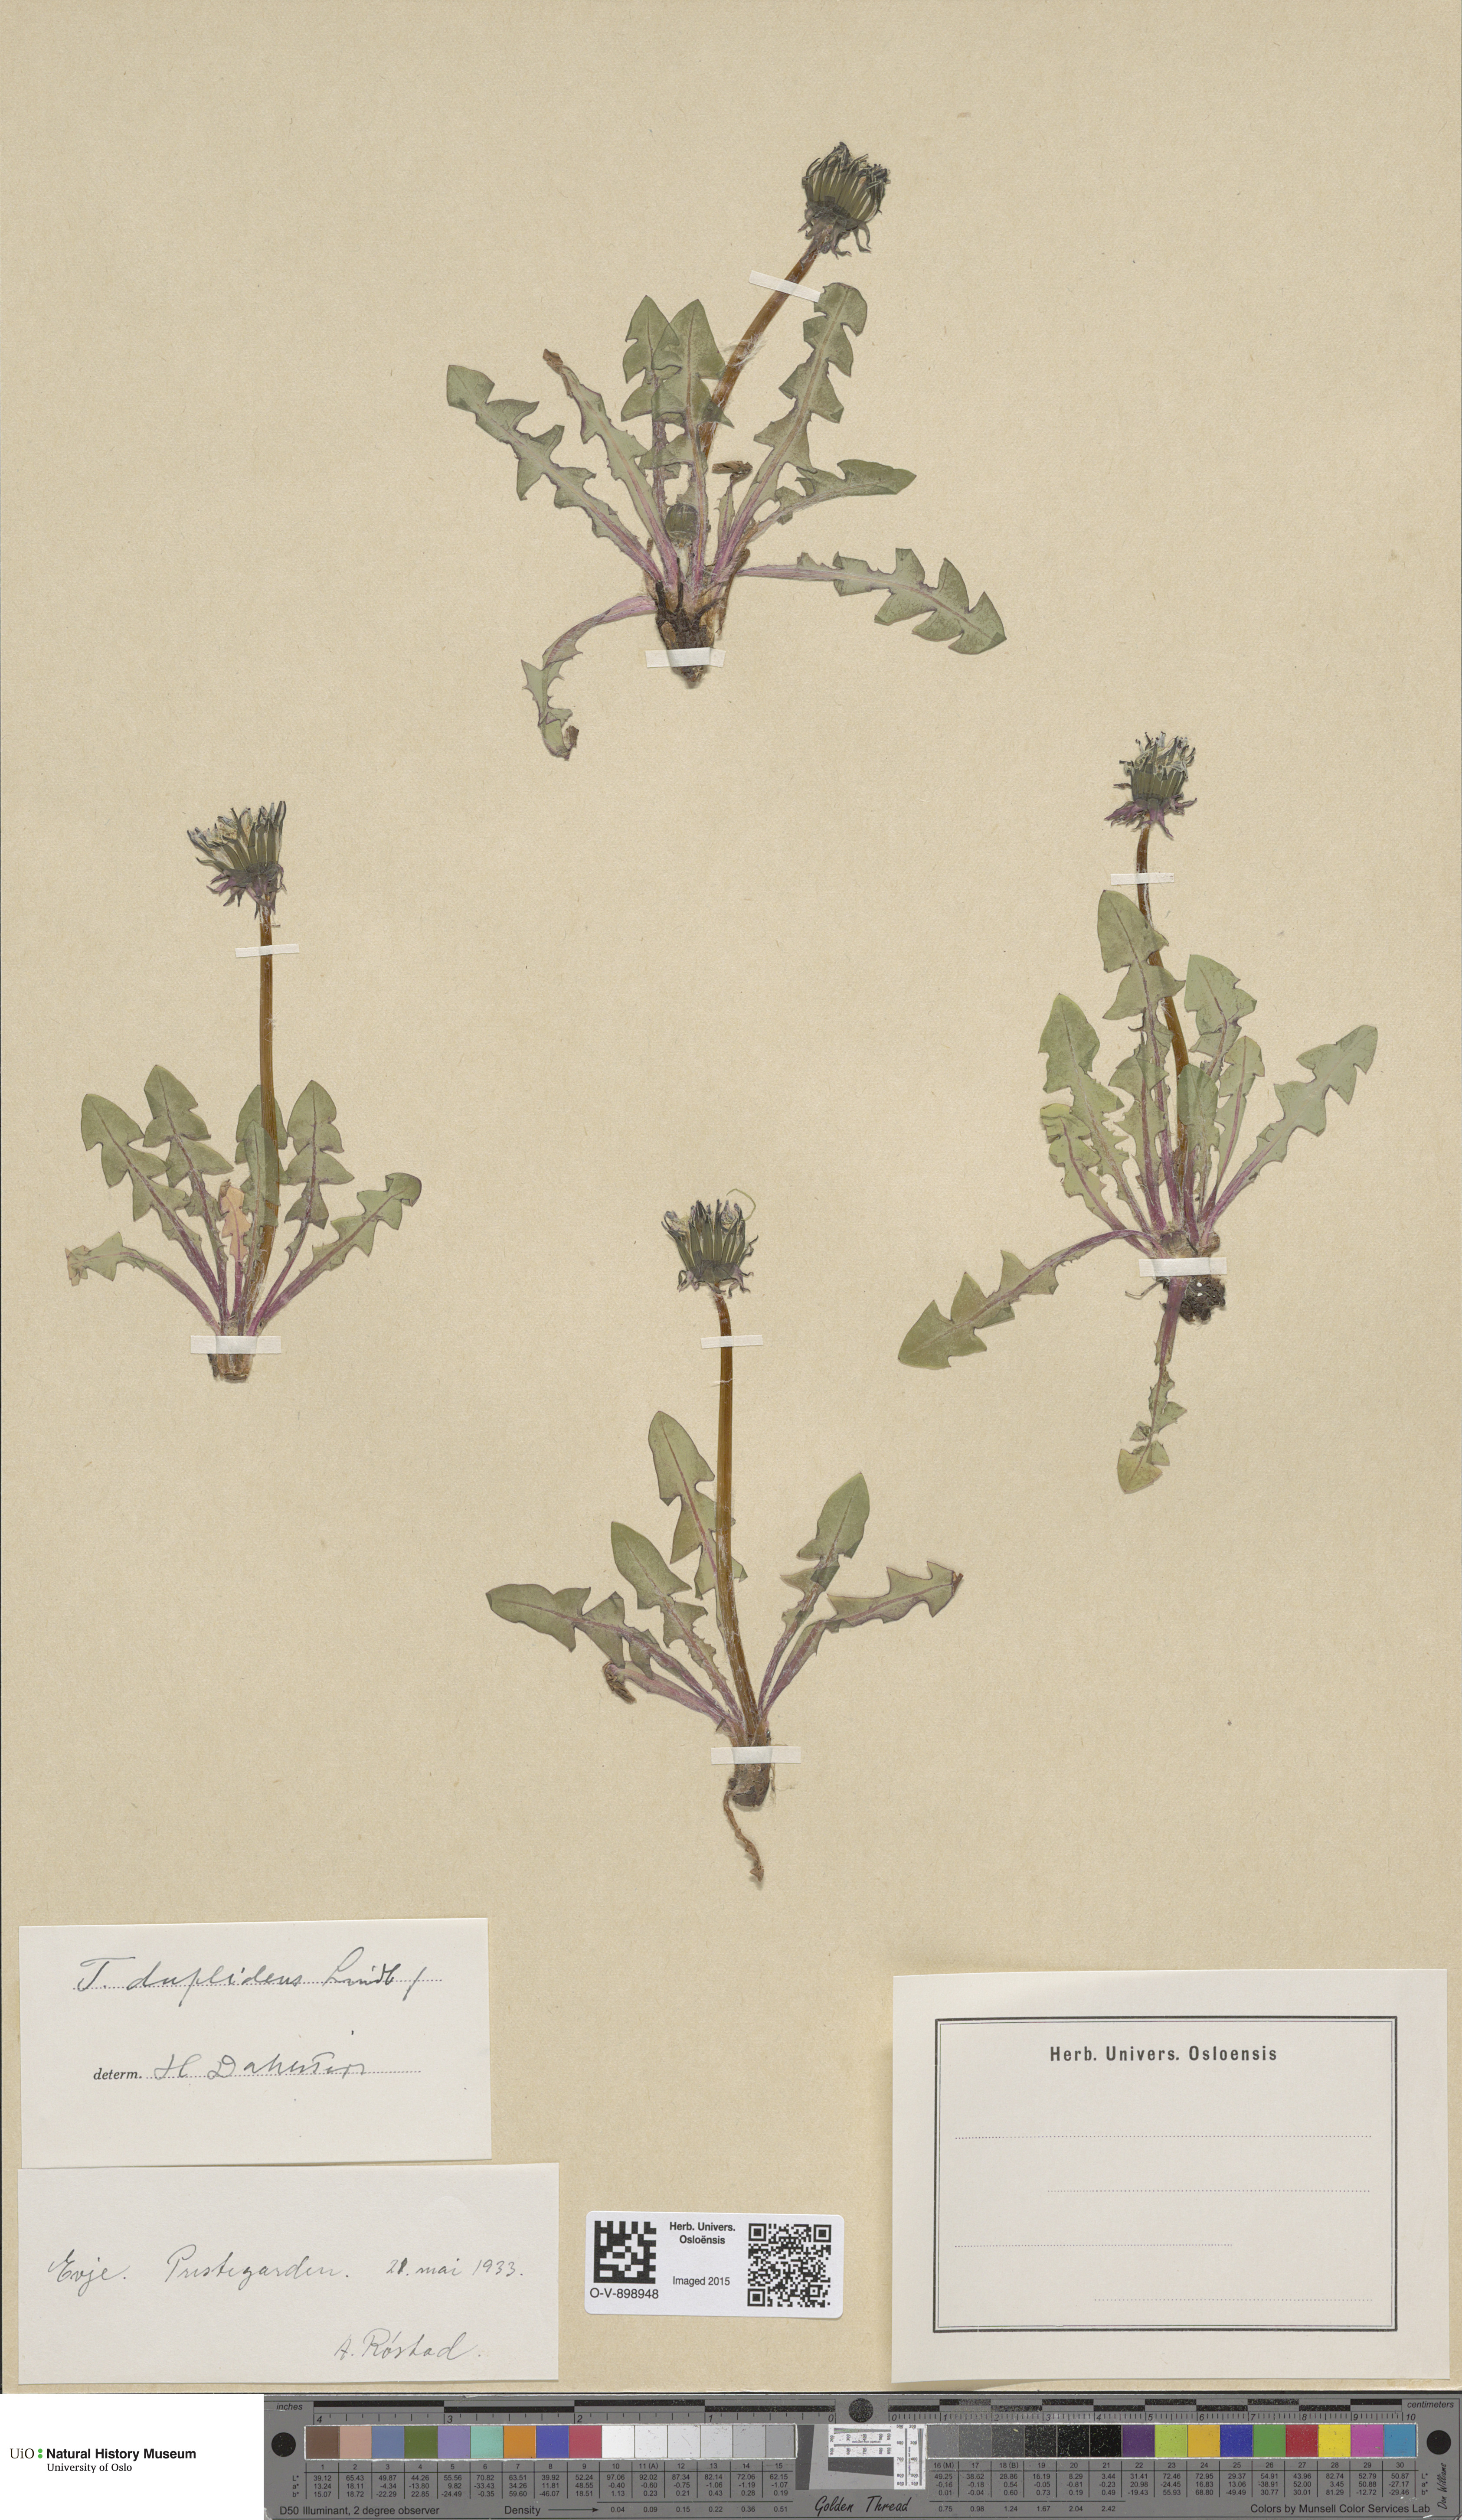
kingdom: Plantae
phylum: Tracheophyta
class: Magnoliopsida
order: Asterales
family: Asteraceae
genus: Taraxacum
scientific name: Taraxacum ostenfeldii
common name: Ostenfeld's dandelion
